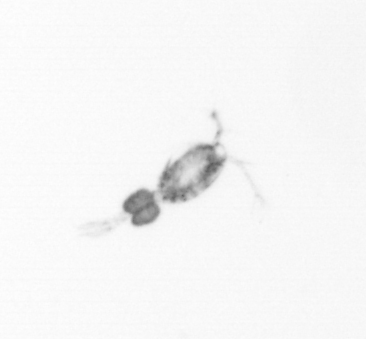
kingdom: Animalia
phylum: Arthropoda
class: Copepoda
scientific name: Copepoda
